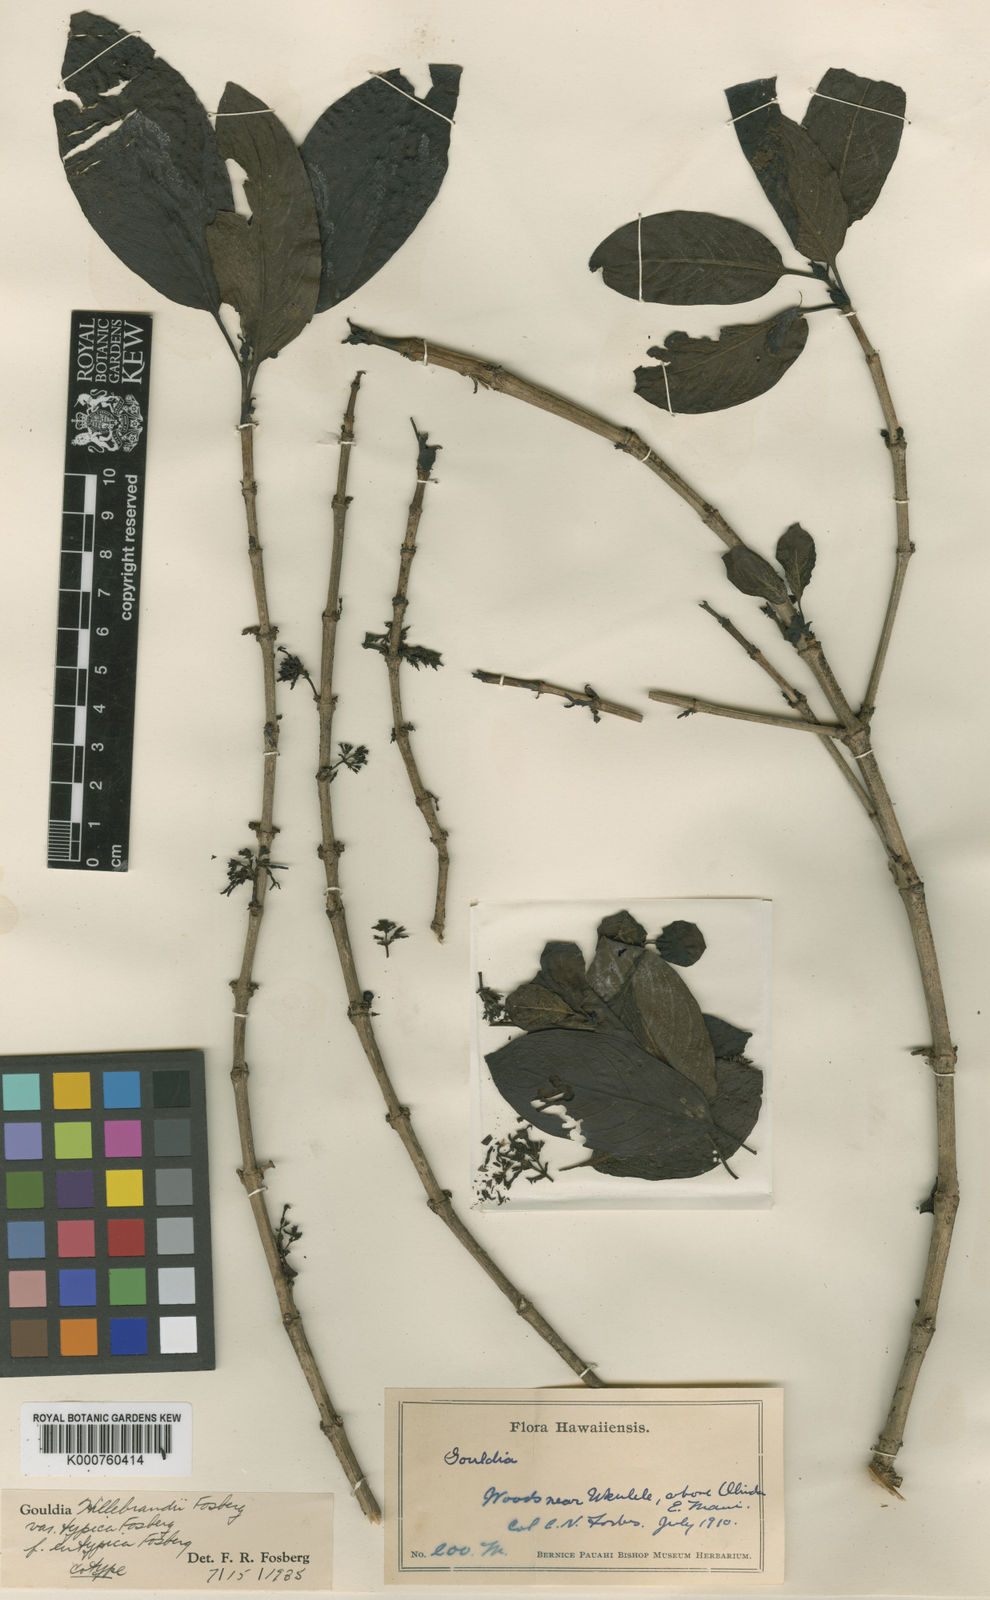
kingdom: Plantae
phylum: Tracheophyta
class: Magnoliopsida
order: Gentianales
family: Rubiaceae
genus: Kadua
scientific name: Kadua axillaris
